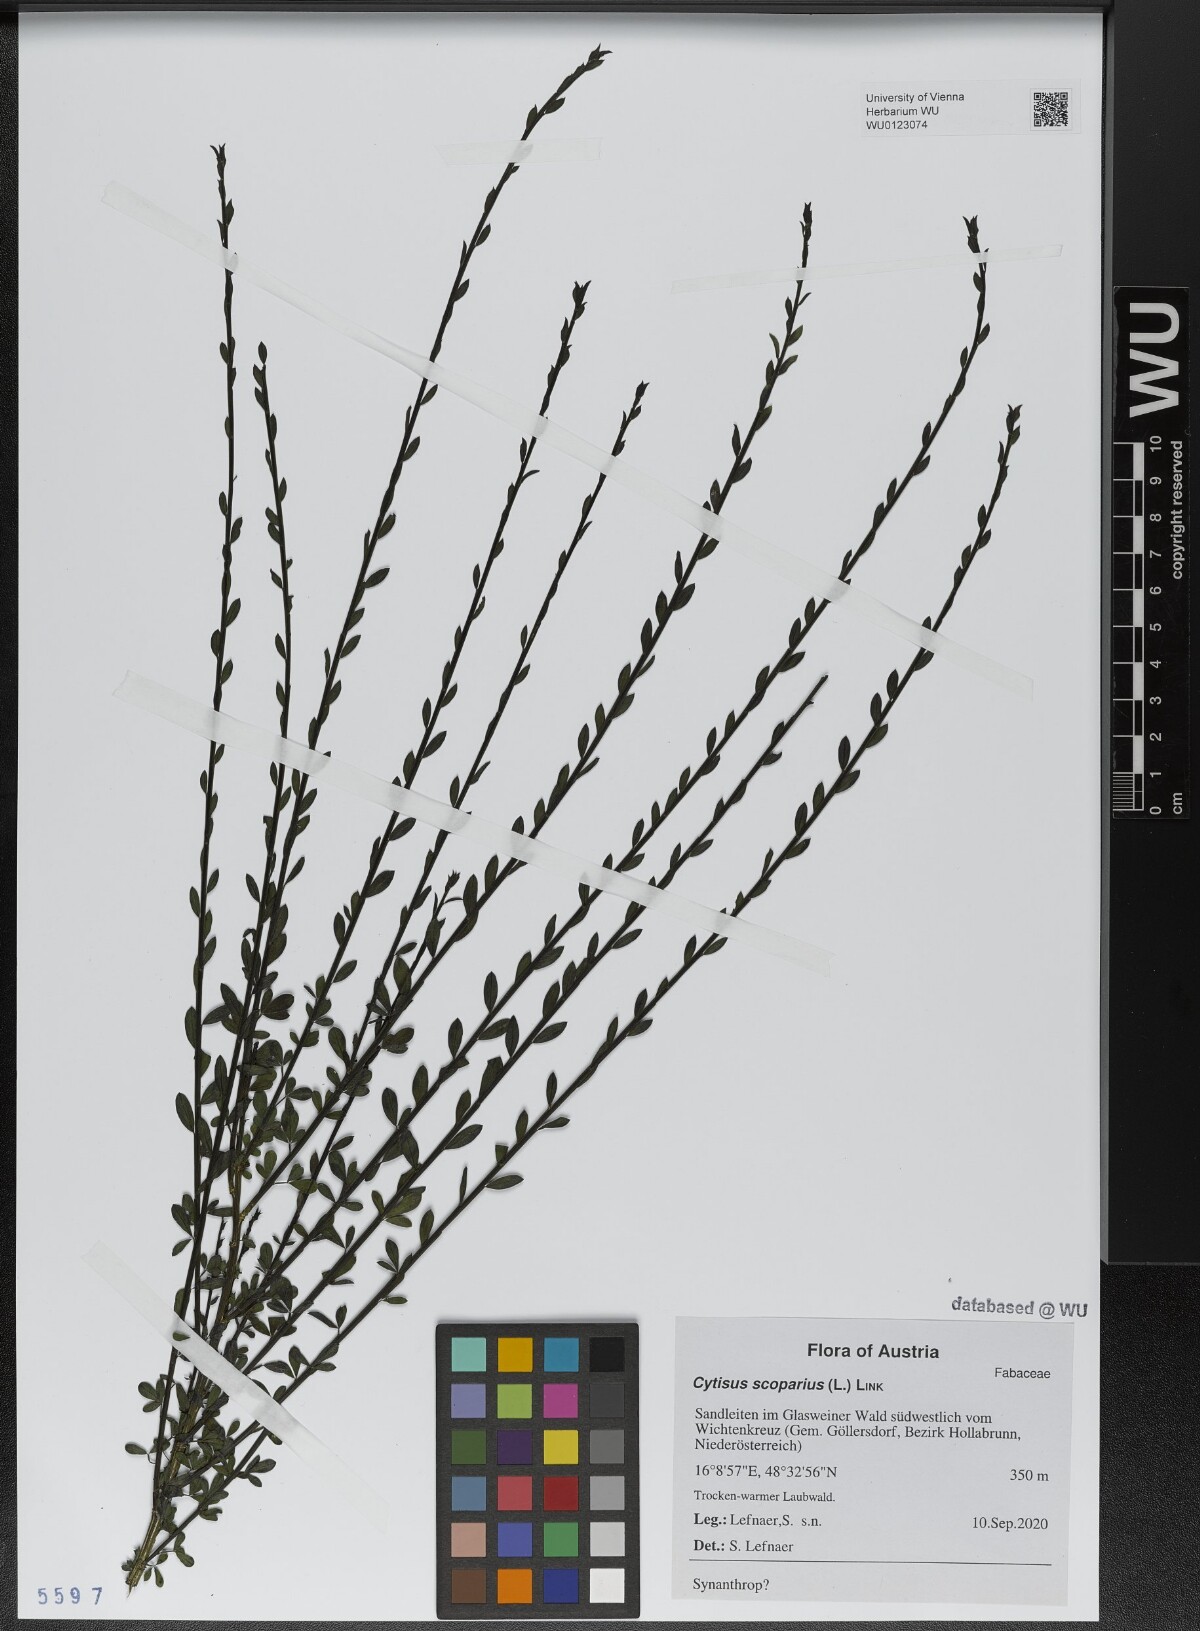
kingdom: Plantae
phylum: Tracheophyta
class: Magnoliopsida
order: Fabales
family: Fabaceae
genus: Cytisus
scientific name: Cytisus scoparius
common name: Scotch broom
